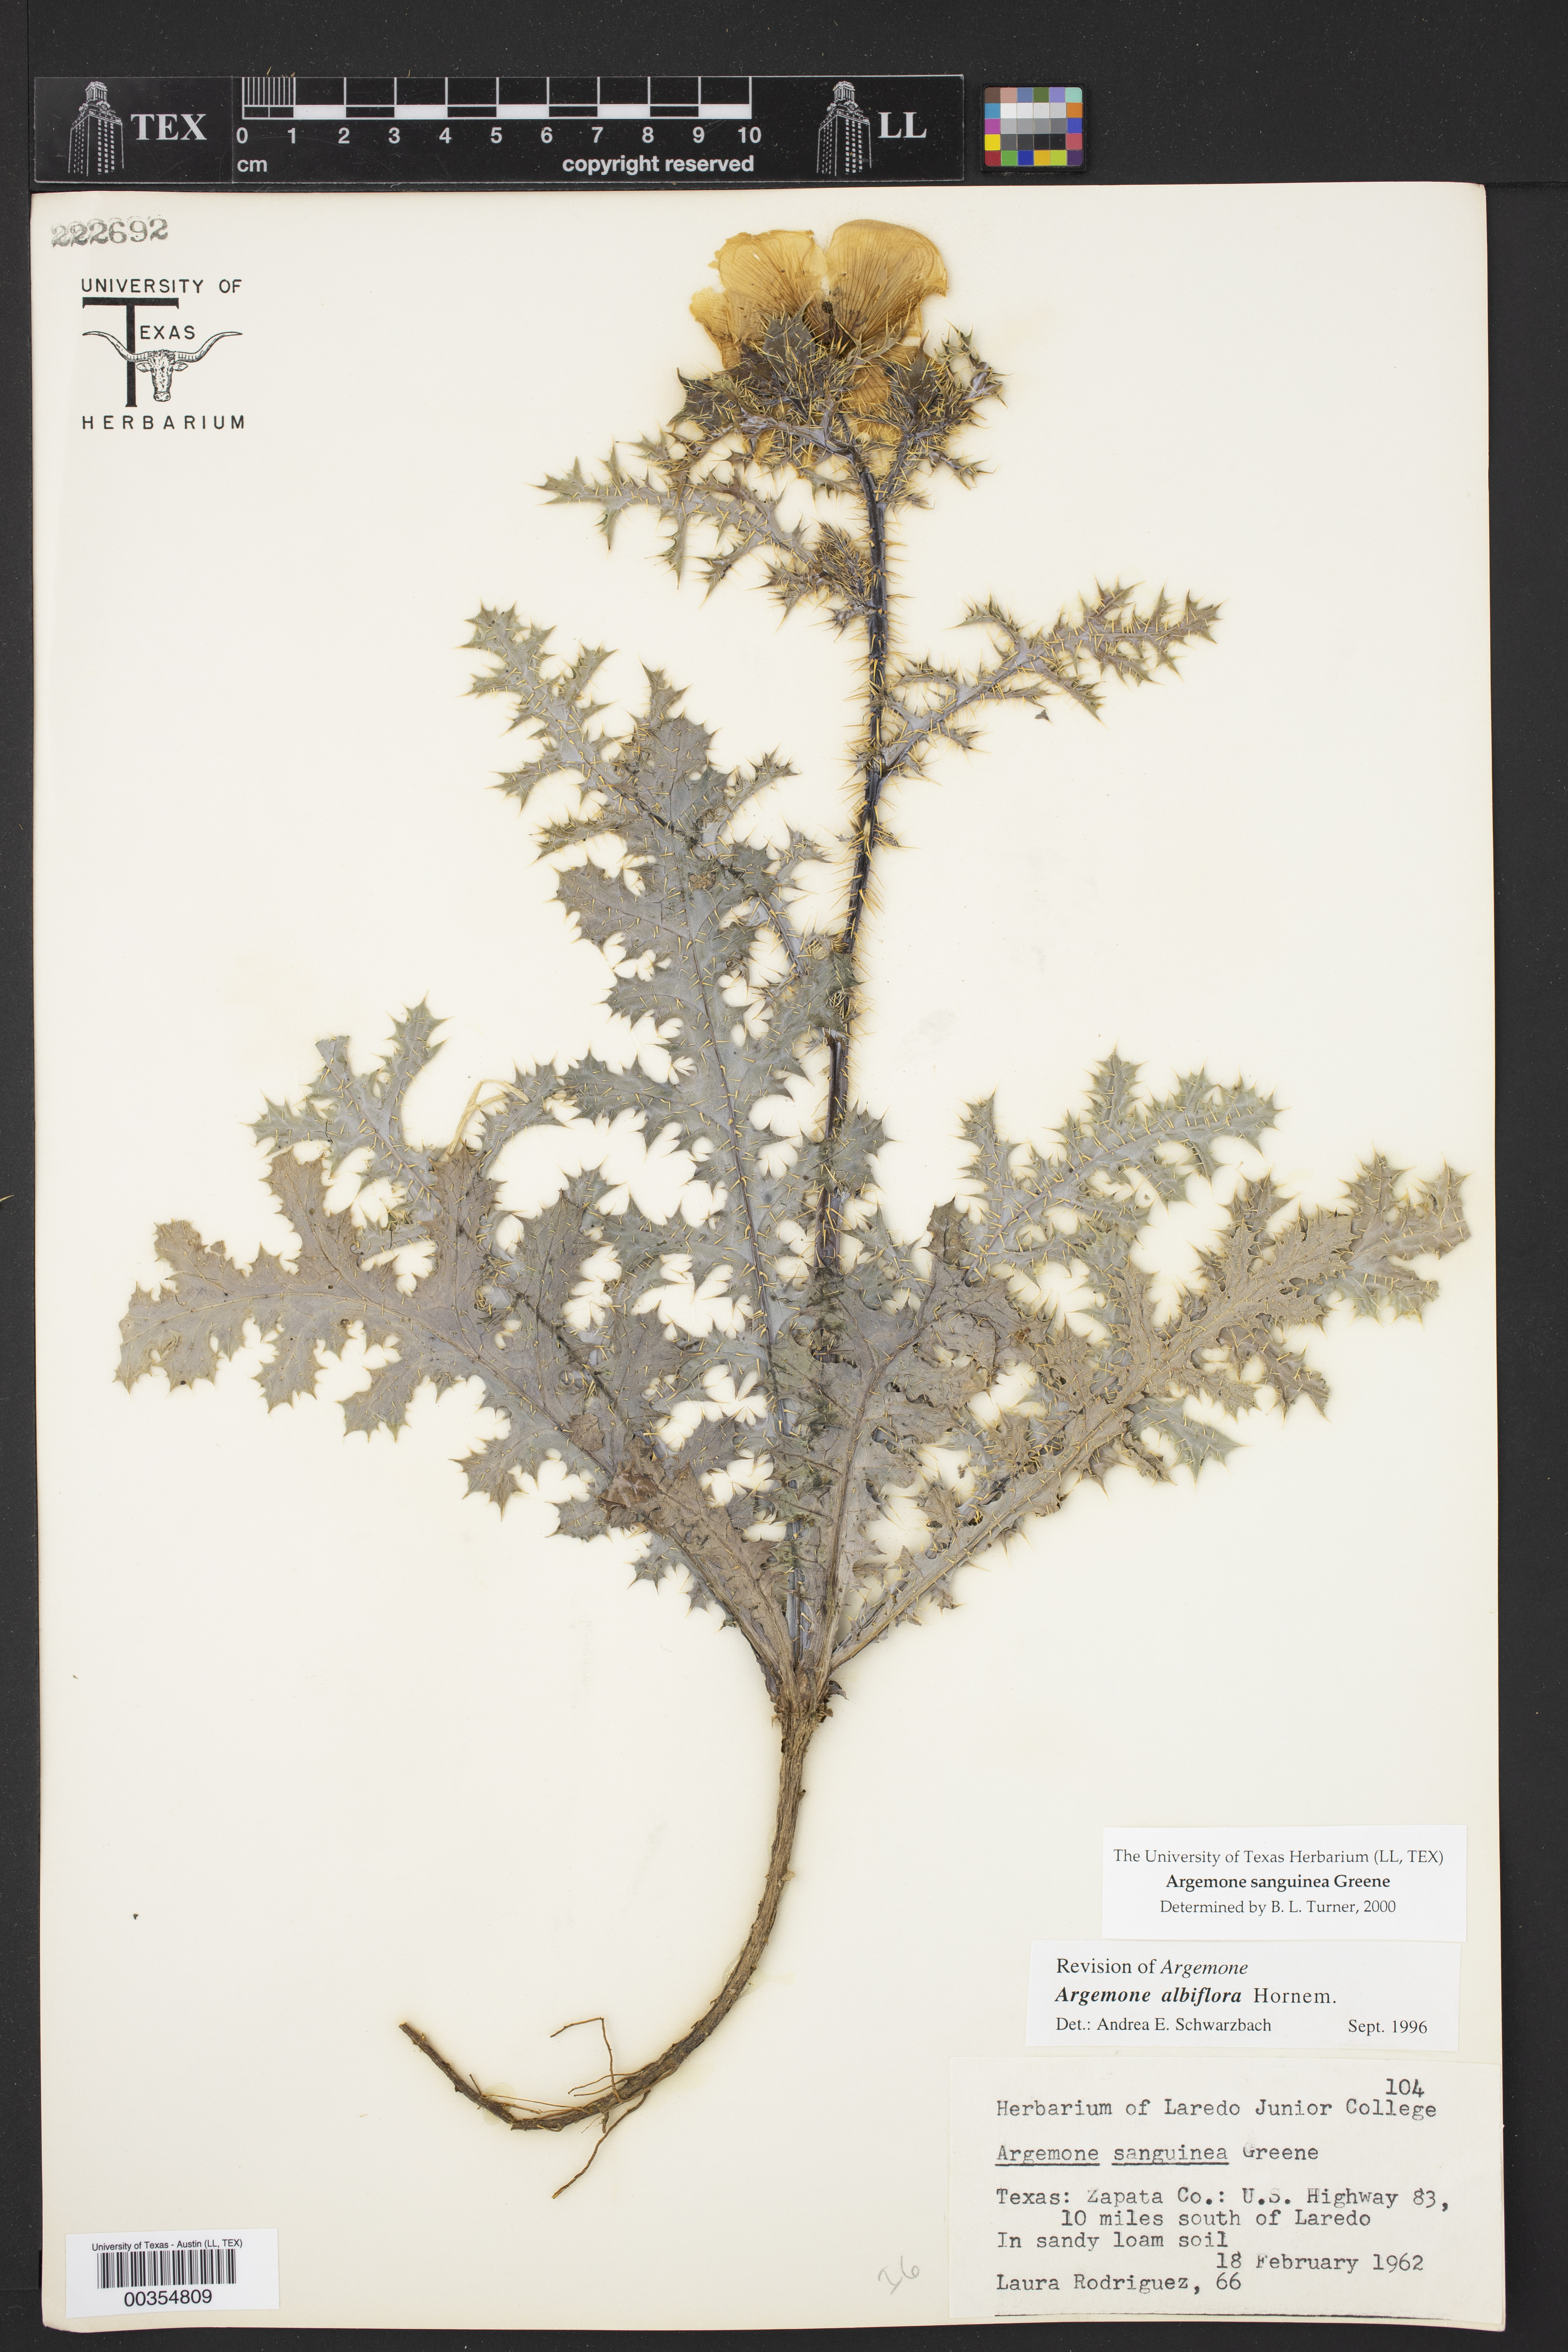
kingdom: Plantae
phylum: Tracheophyta
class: Magnoliopsida
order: Ranunculales
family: Papaveraceae
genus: Argemone
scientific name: Argemone sanguinea
